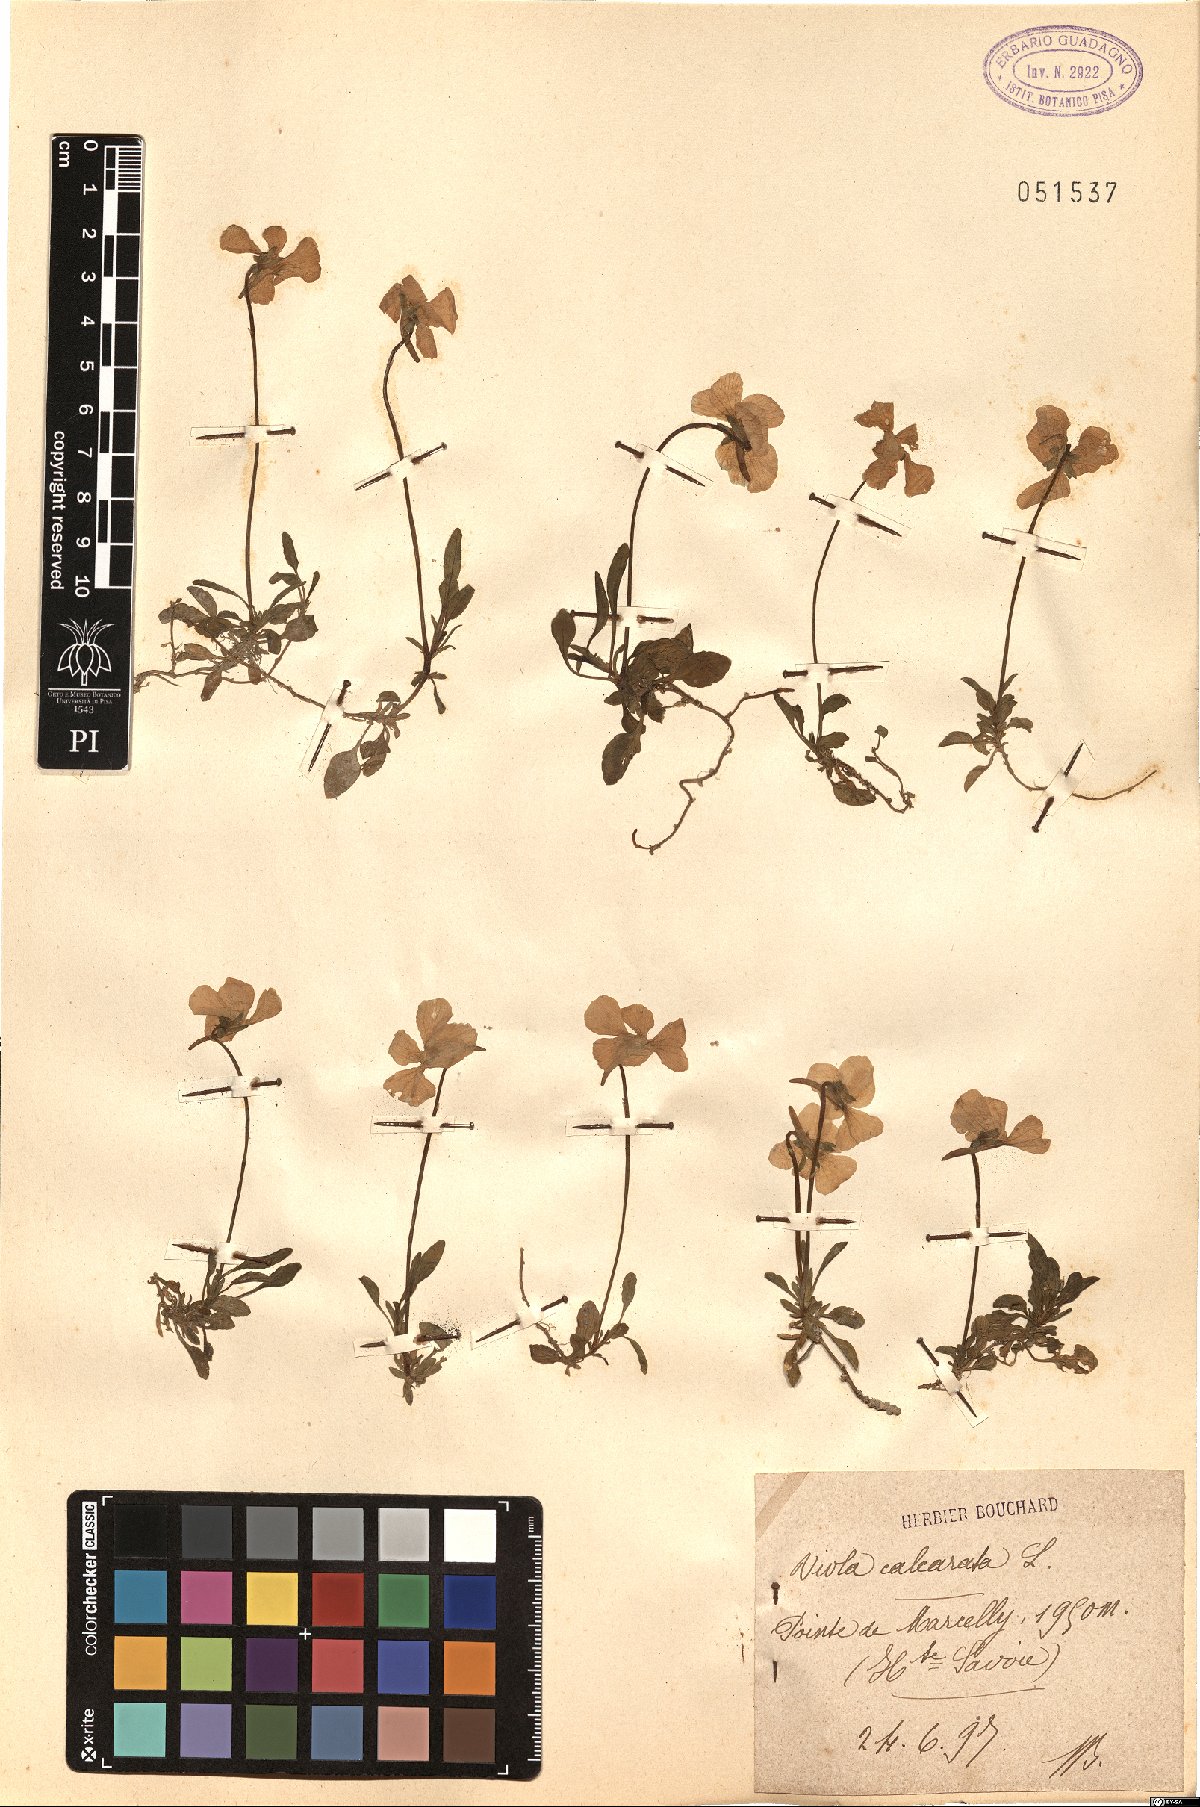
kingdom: Plantae
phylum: Tracheophyta
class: Magnoliopsida
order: Malpighiales
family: Violaceae
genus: Viola
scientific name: Viola calcarata
